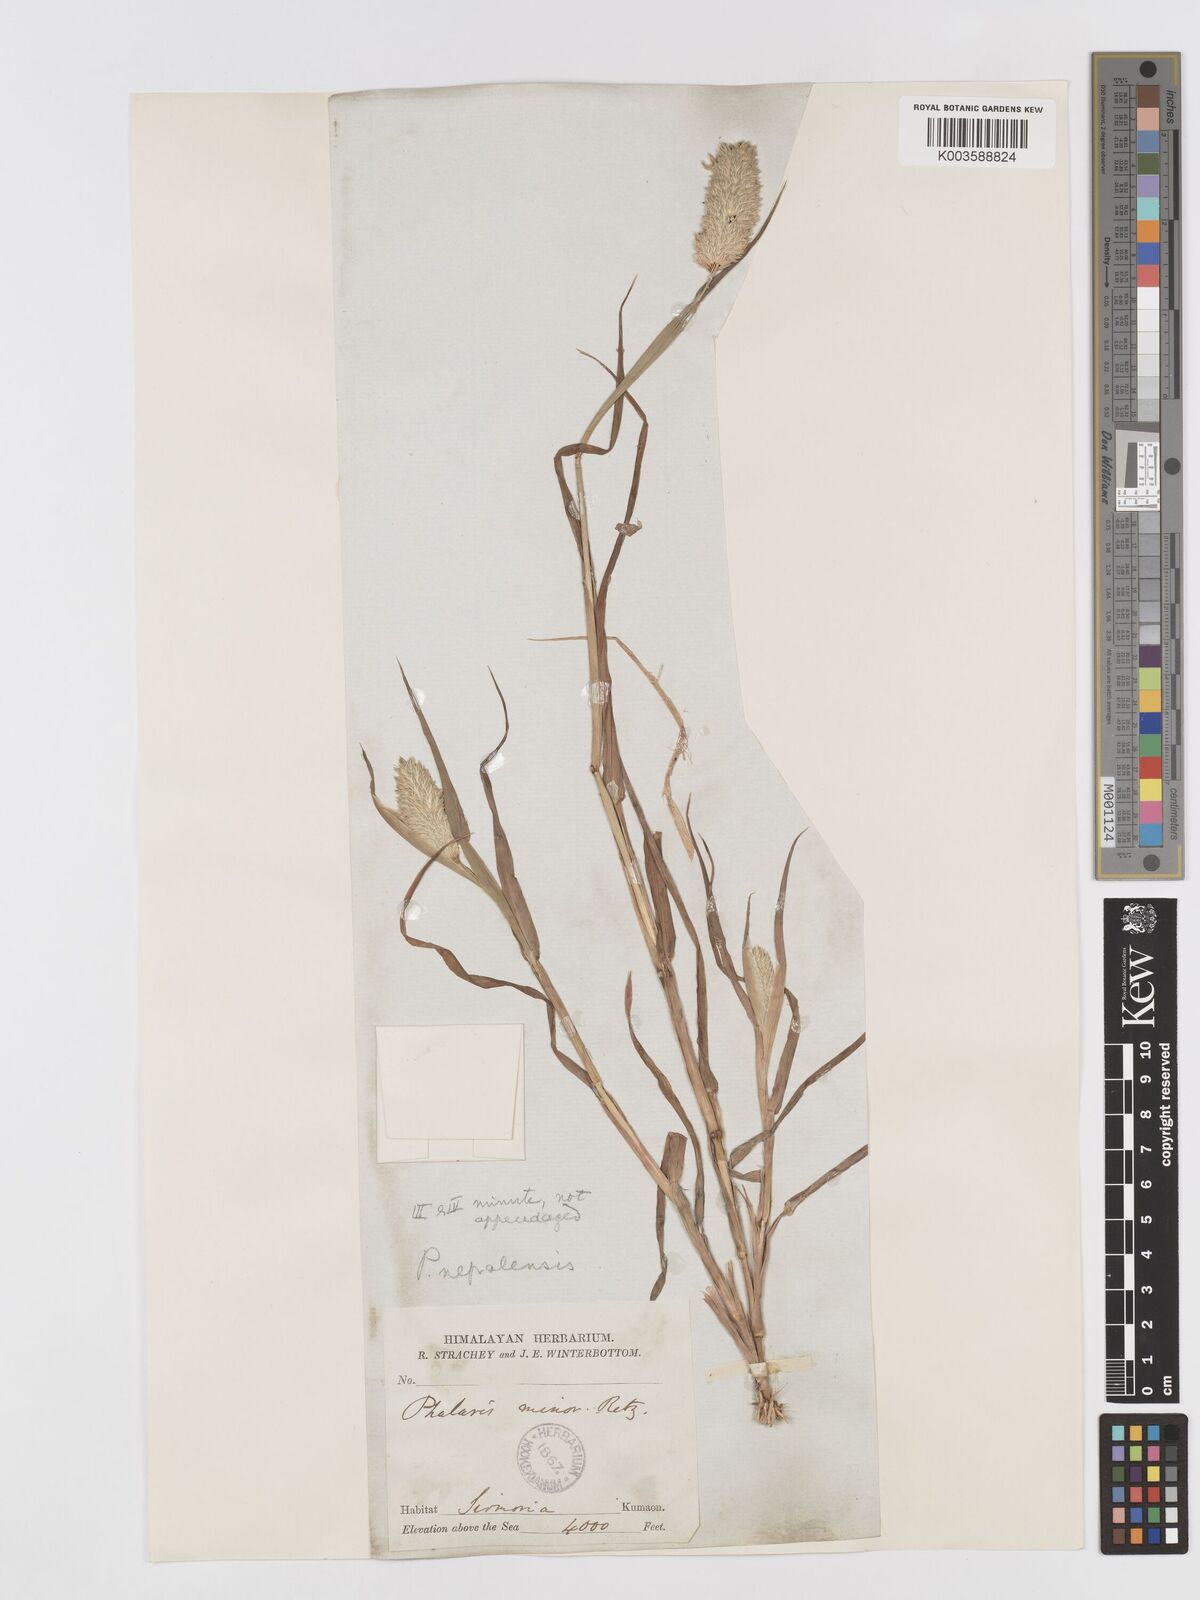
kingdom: Plantae
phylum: Tracheophyta
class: Liliopsida
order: Poales
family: Poaceae
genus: Phalaris
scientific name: Phalaris minor
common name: Littleseed canarygrass
